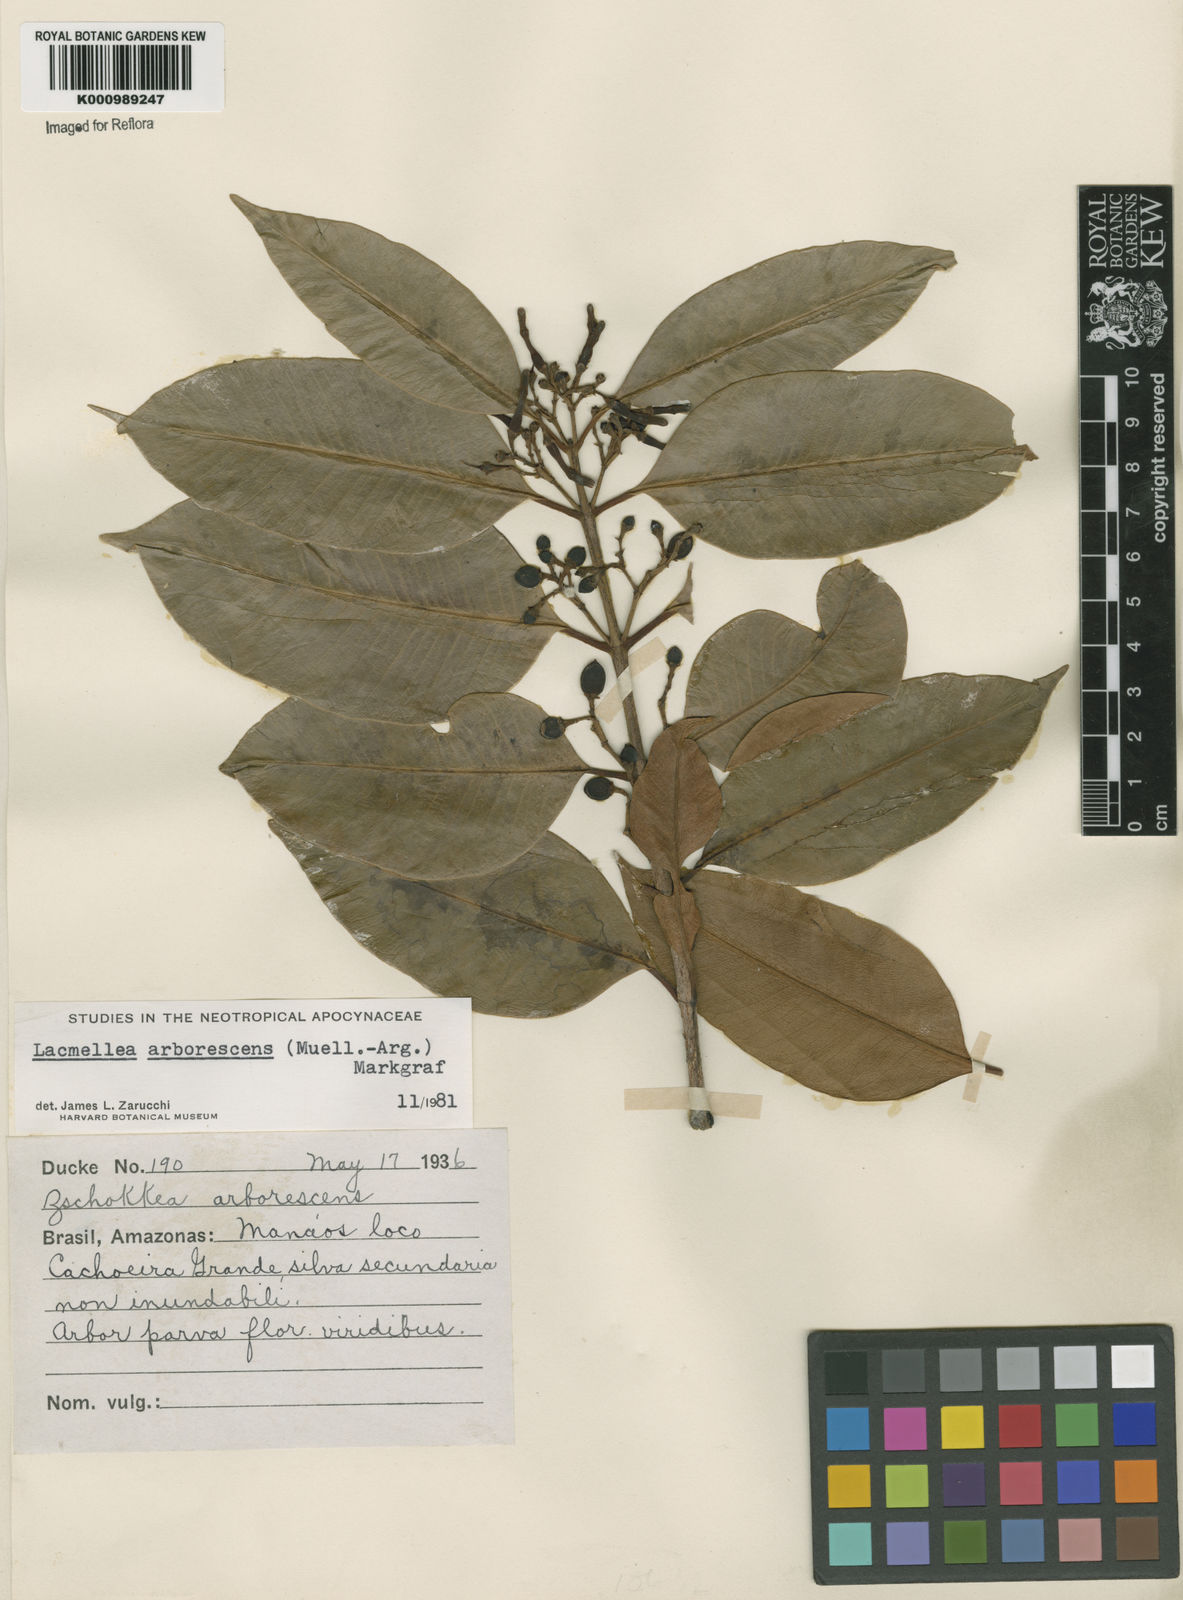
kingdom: Plantae
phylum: Tracheophyta
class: Magnoliopsida
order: Gentianales
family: Apocynaceae
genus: Lacmellea
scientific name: Lacmellea
